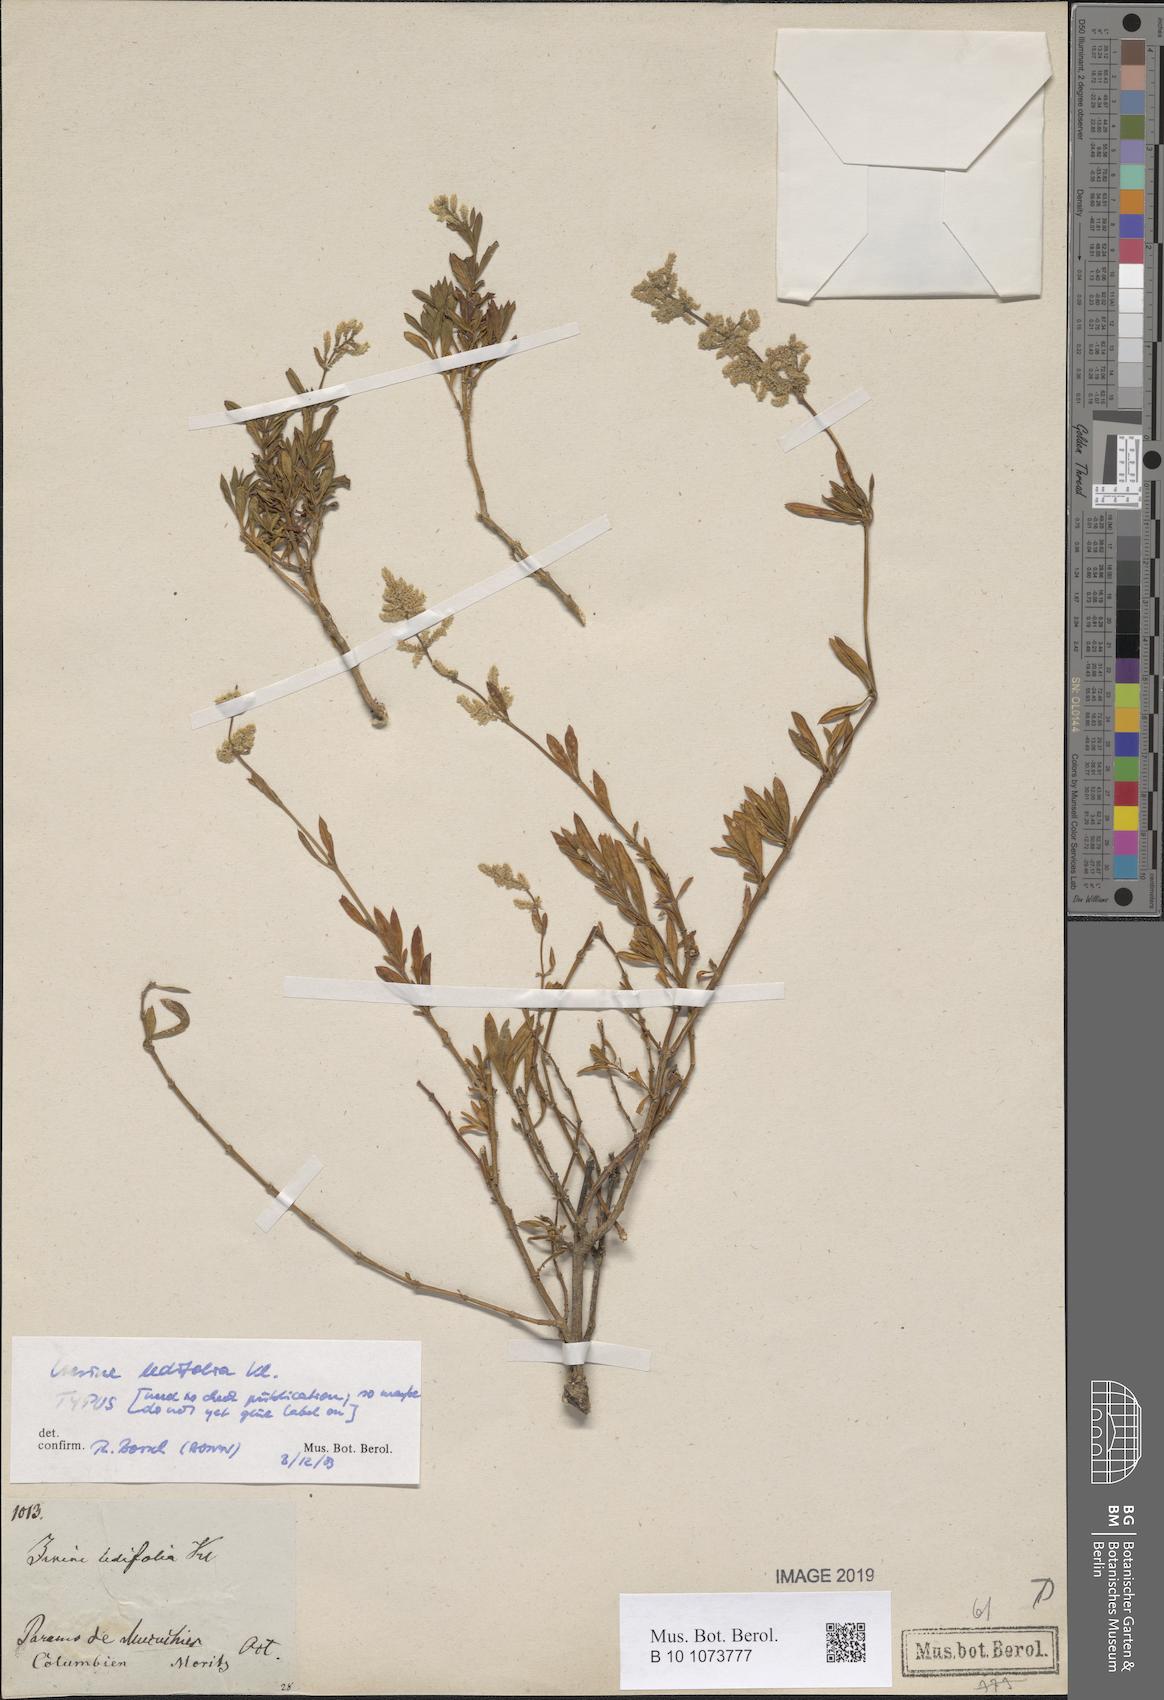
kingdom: Plantae
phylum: Tracheophyta
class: Magnoliopsida
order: Caryophyllales
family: Amaranthaceae
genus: Iresine
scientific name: Iresine
